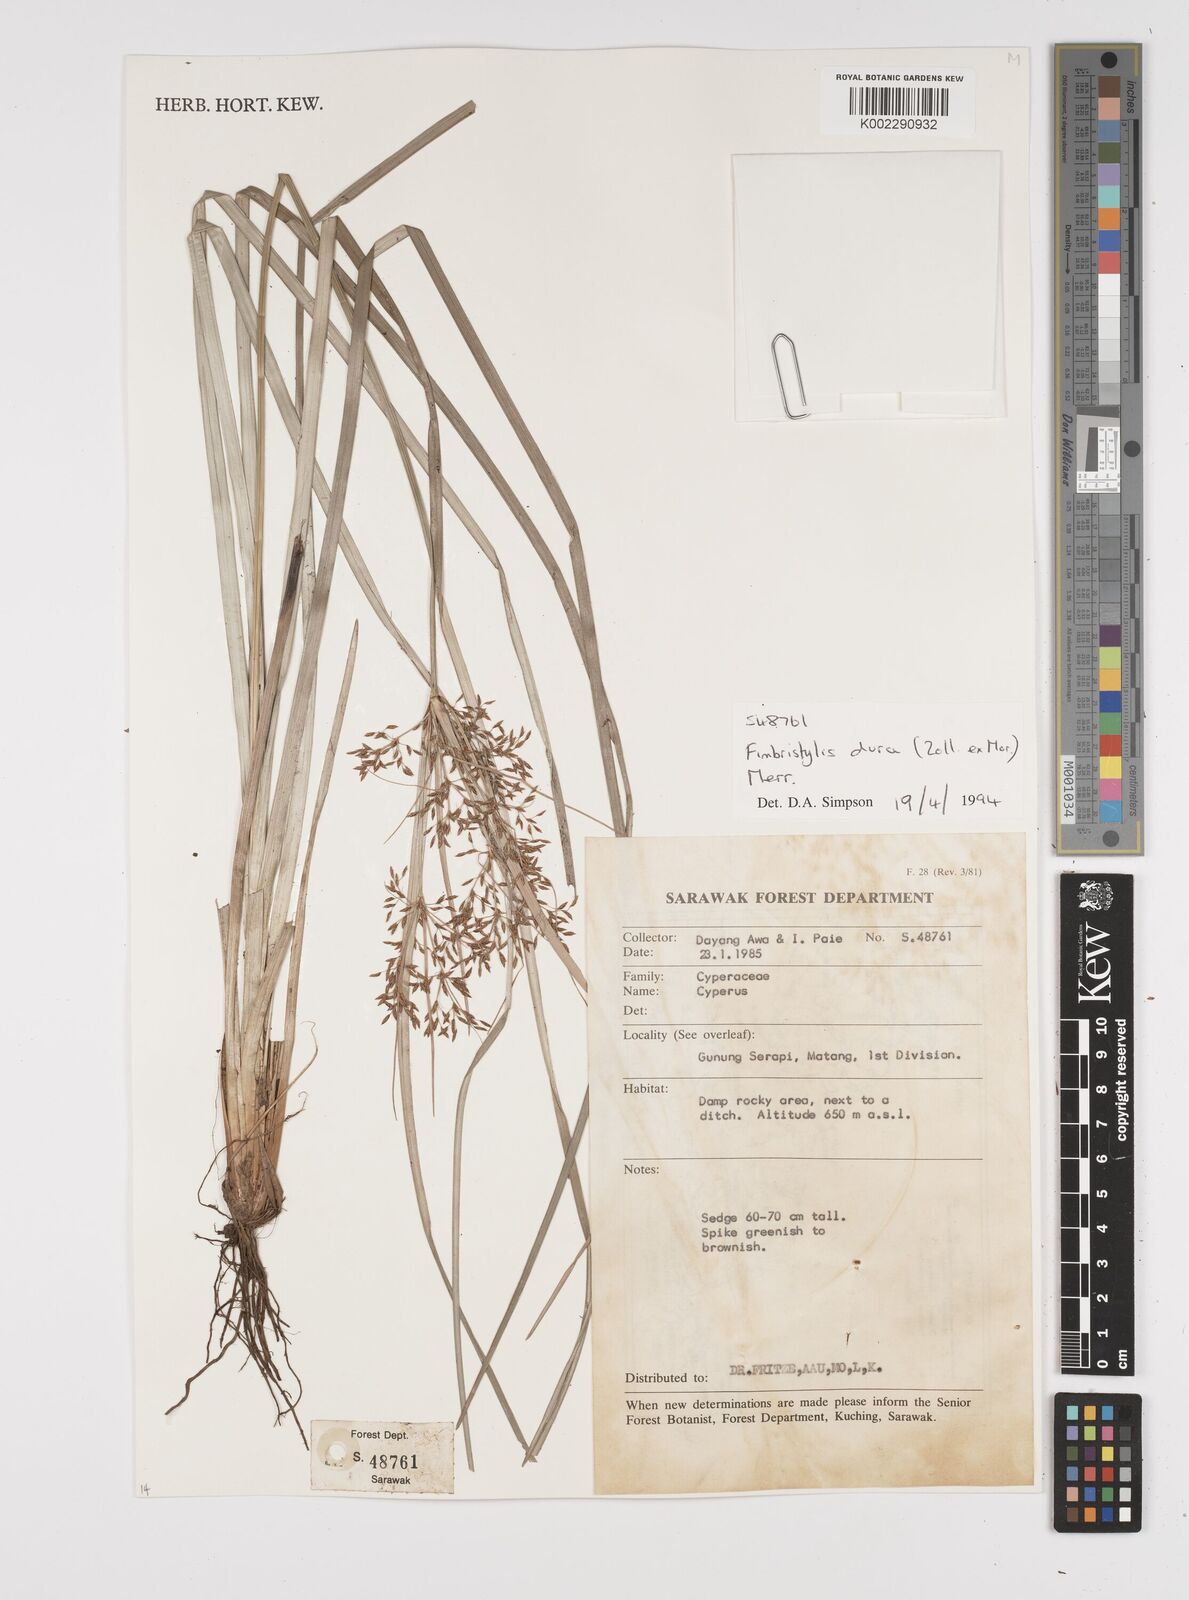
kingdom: Plantae
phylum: Tracheophyta
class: Liliopsida
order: Poales
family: Cyperaceae
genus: Fimbristylis
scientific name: Fimbristylis dura
